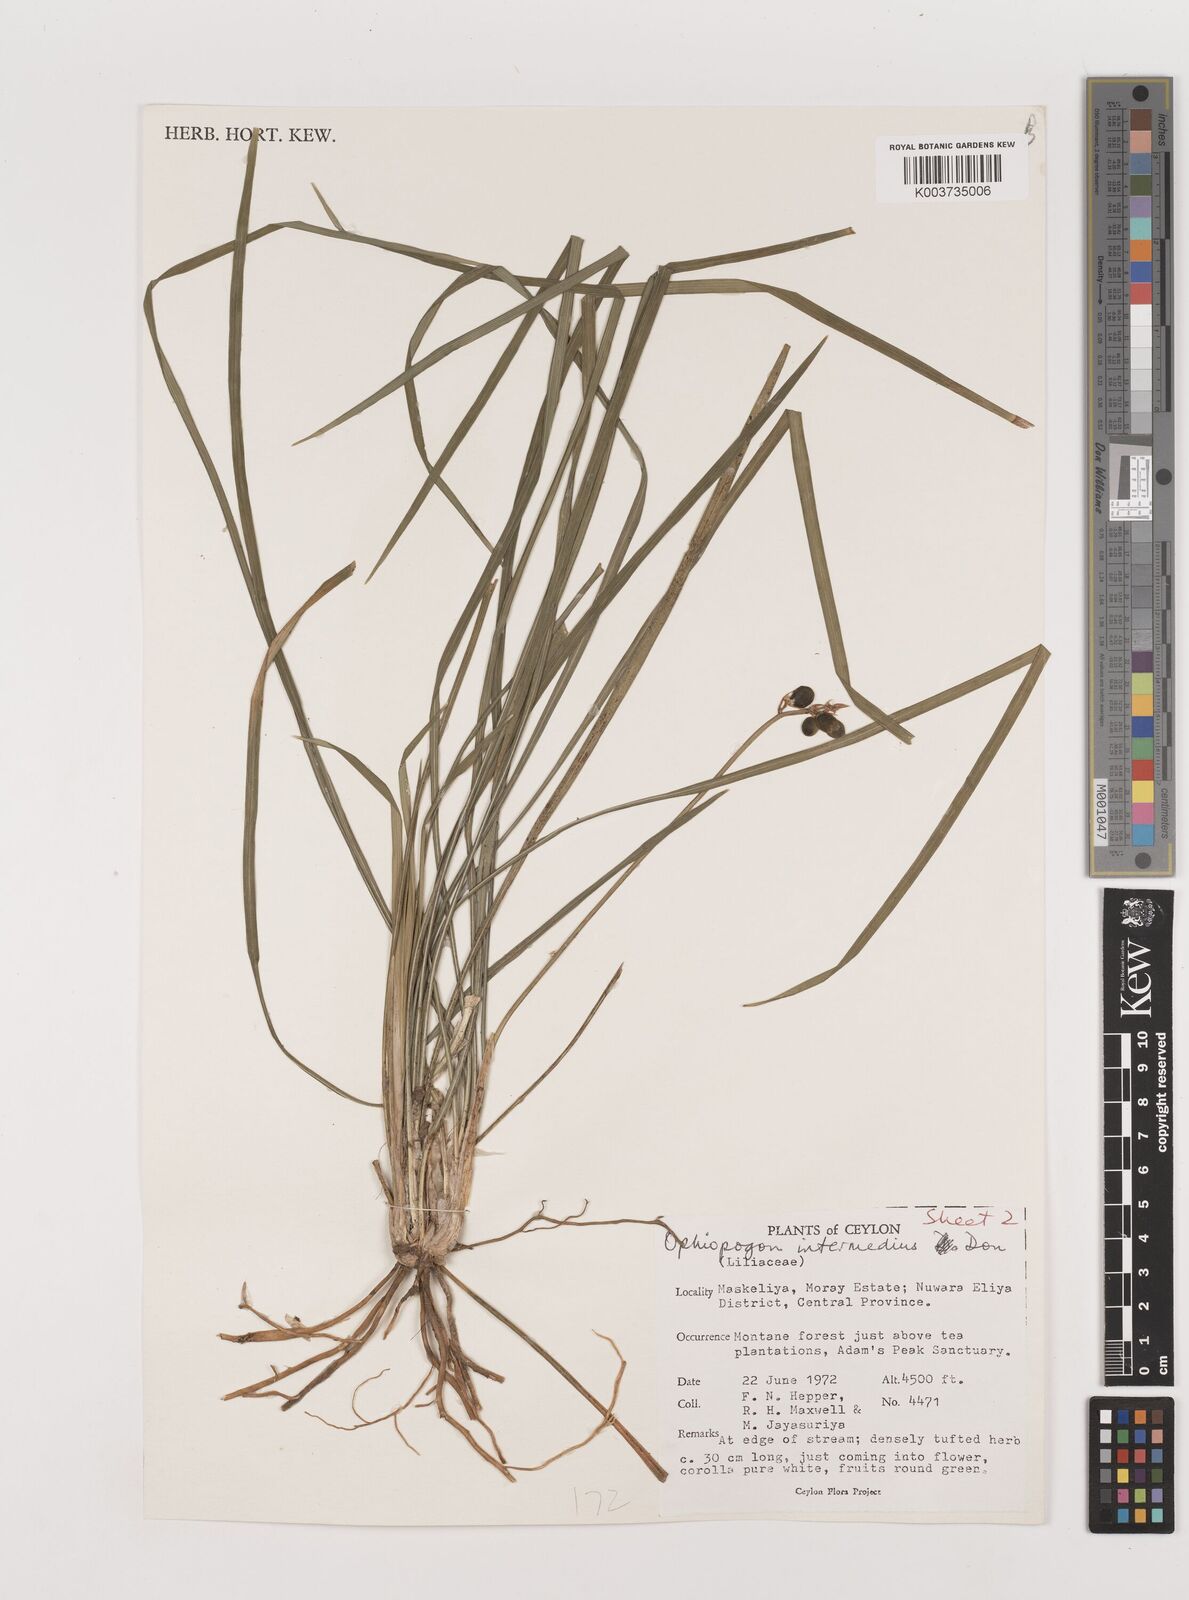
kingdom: Plantae
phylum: Tracheophyta
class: Liliopsida
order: Asparagales
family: Asparagaceae
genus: Ophiopogon
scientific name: Ophiopogon intermedius
